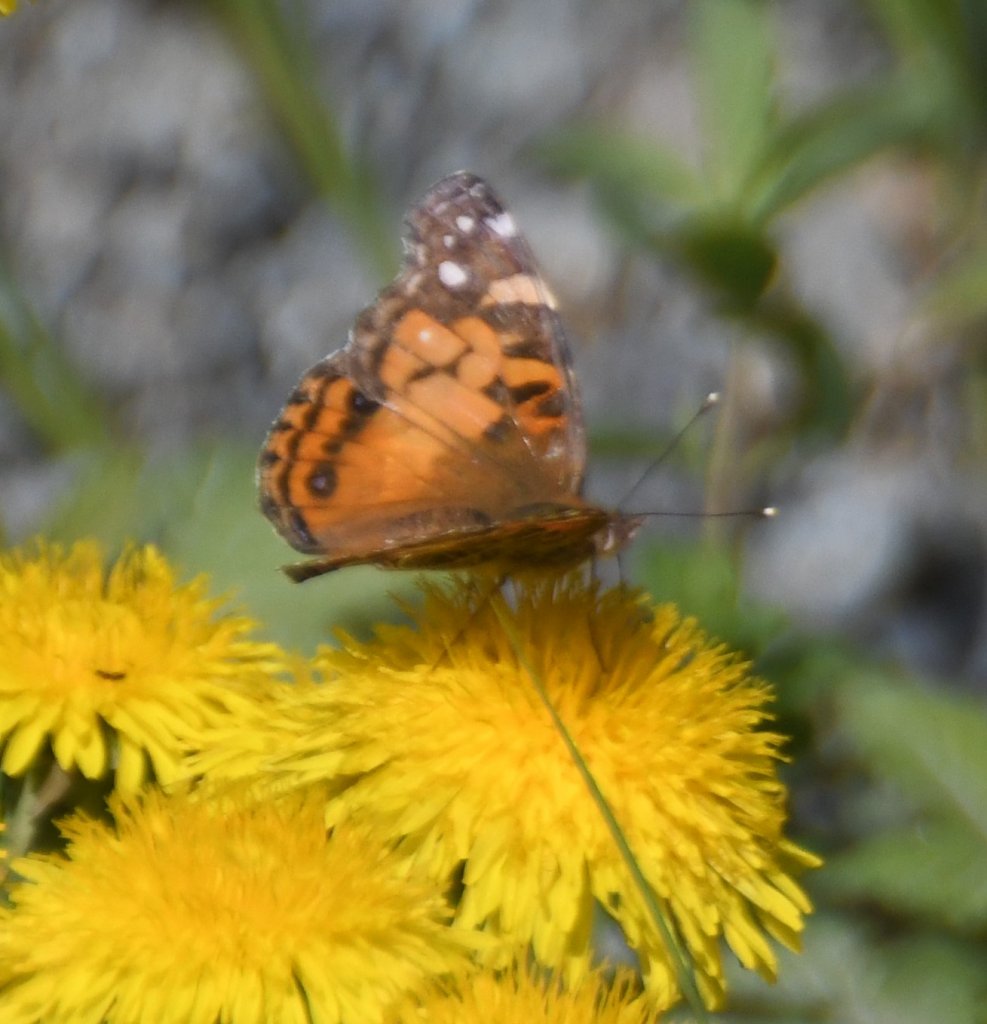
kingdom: Animalia
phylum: Arthropoda
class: Insecta
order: Lepidoptera
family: Nymphalidae
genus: Vanessa
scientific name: Vanessa virginiensis
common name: American Lady
